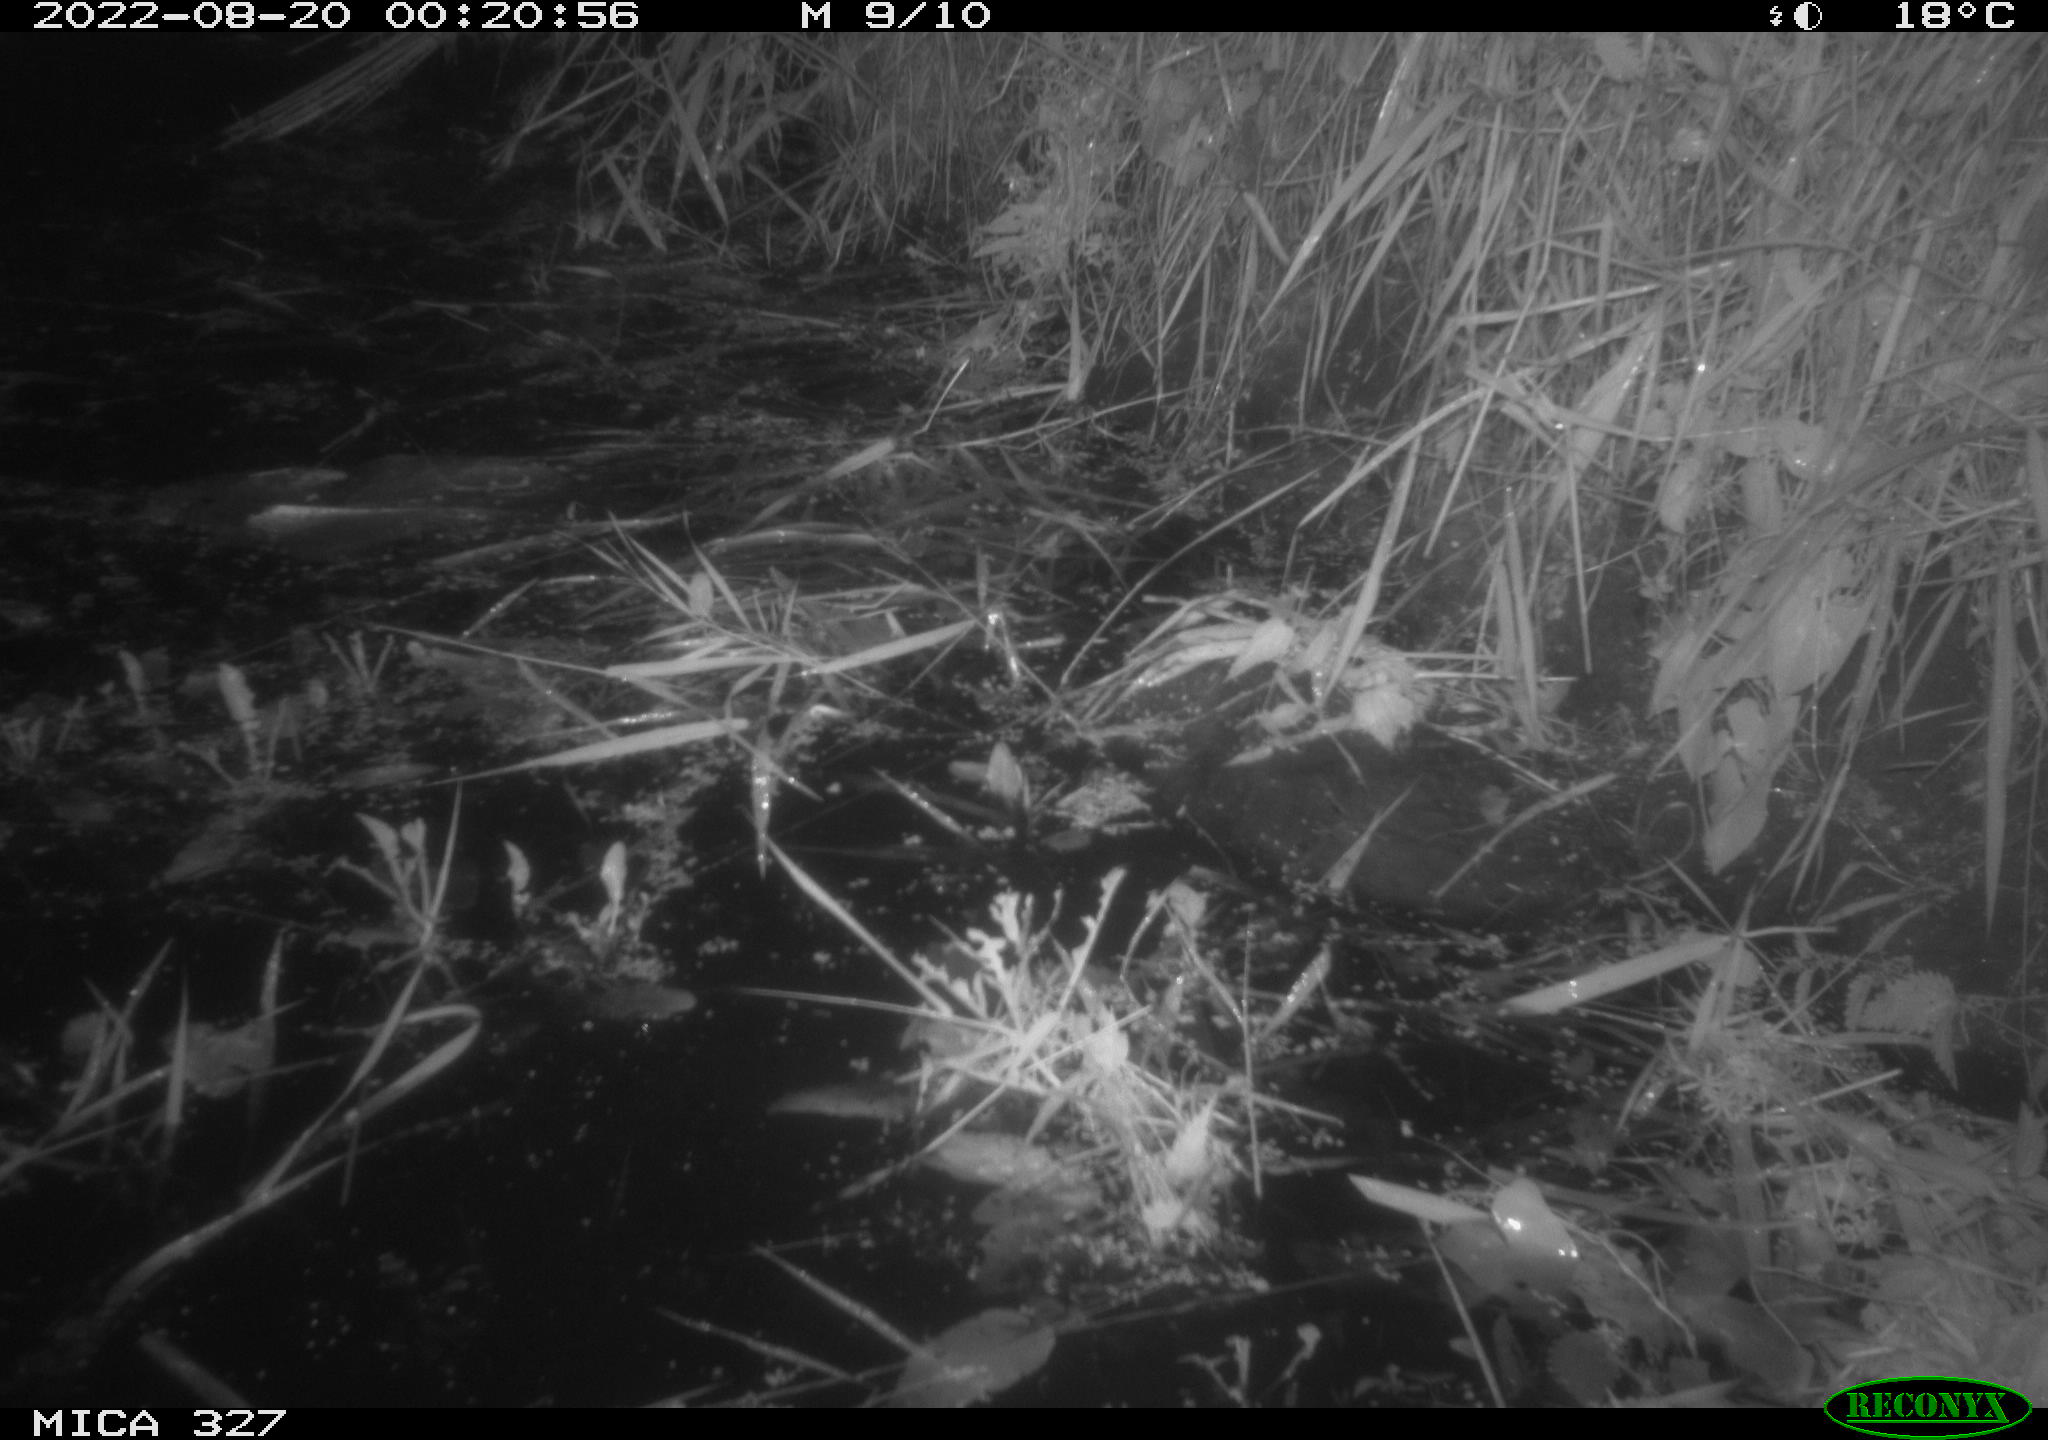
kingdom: Animalia
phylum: Chordata
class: Mammalia
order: Rodentia
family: Muridae
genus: Rattus
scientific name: Rattus norvegicus
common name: Brown rat
